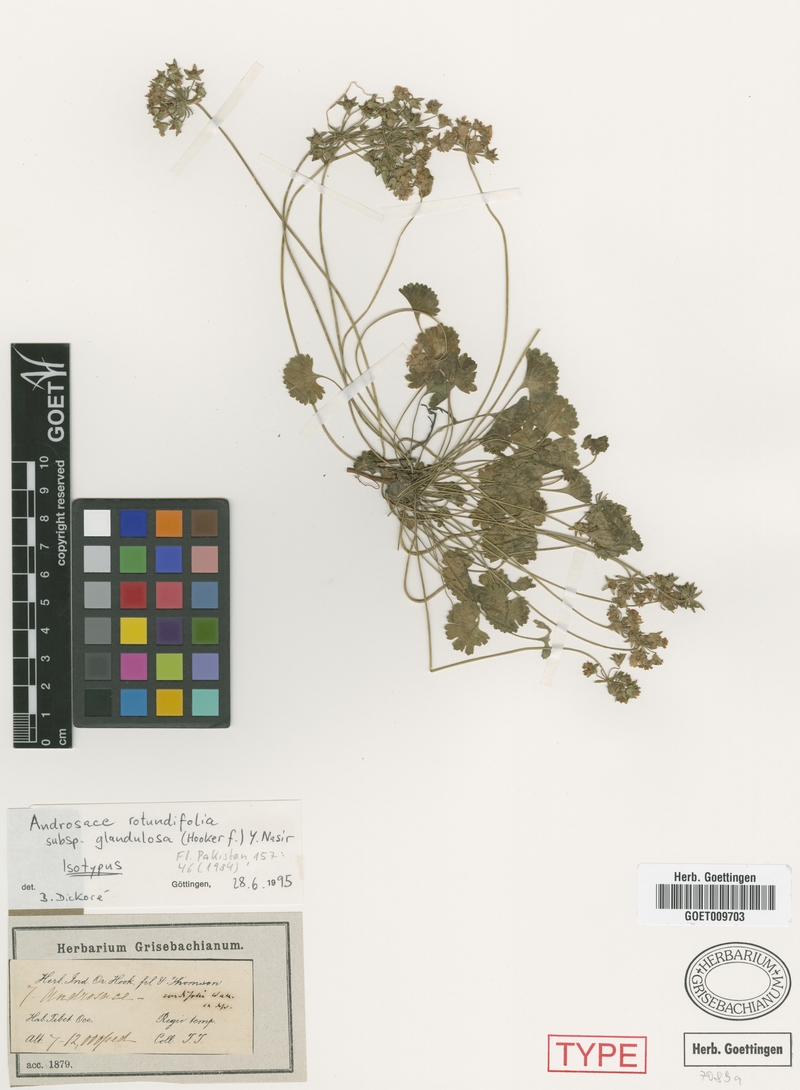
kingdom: Plantae
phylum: Tracheophyta
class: Magnoliopsida
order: Ericales
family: Primulaceae
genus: Androsace
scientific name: Androsace umbellata
